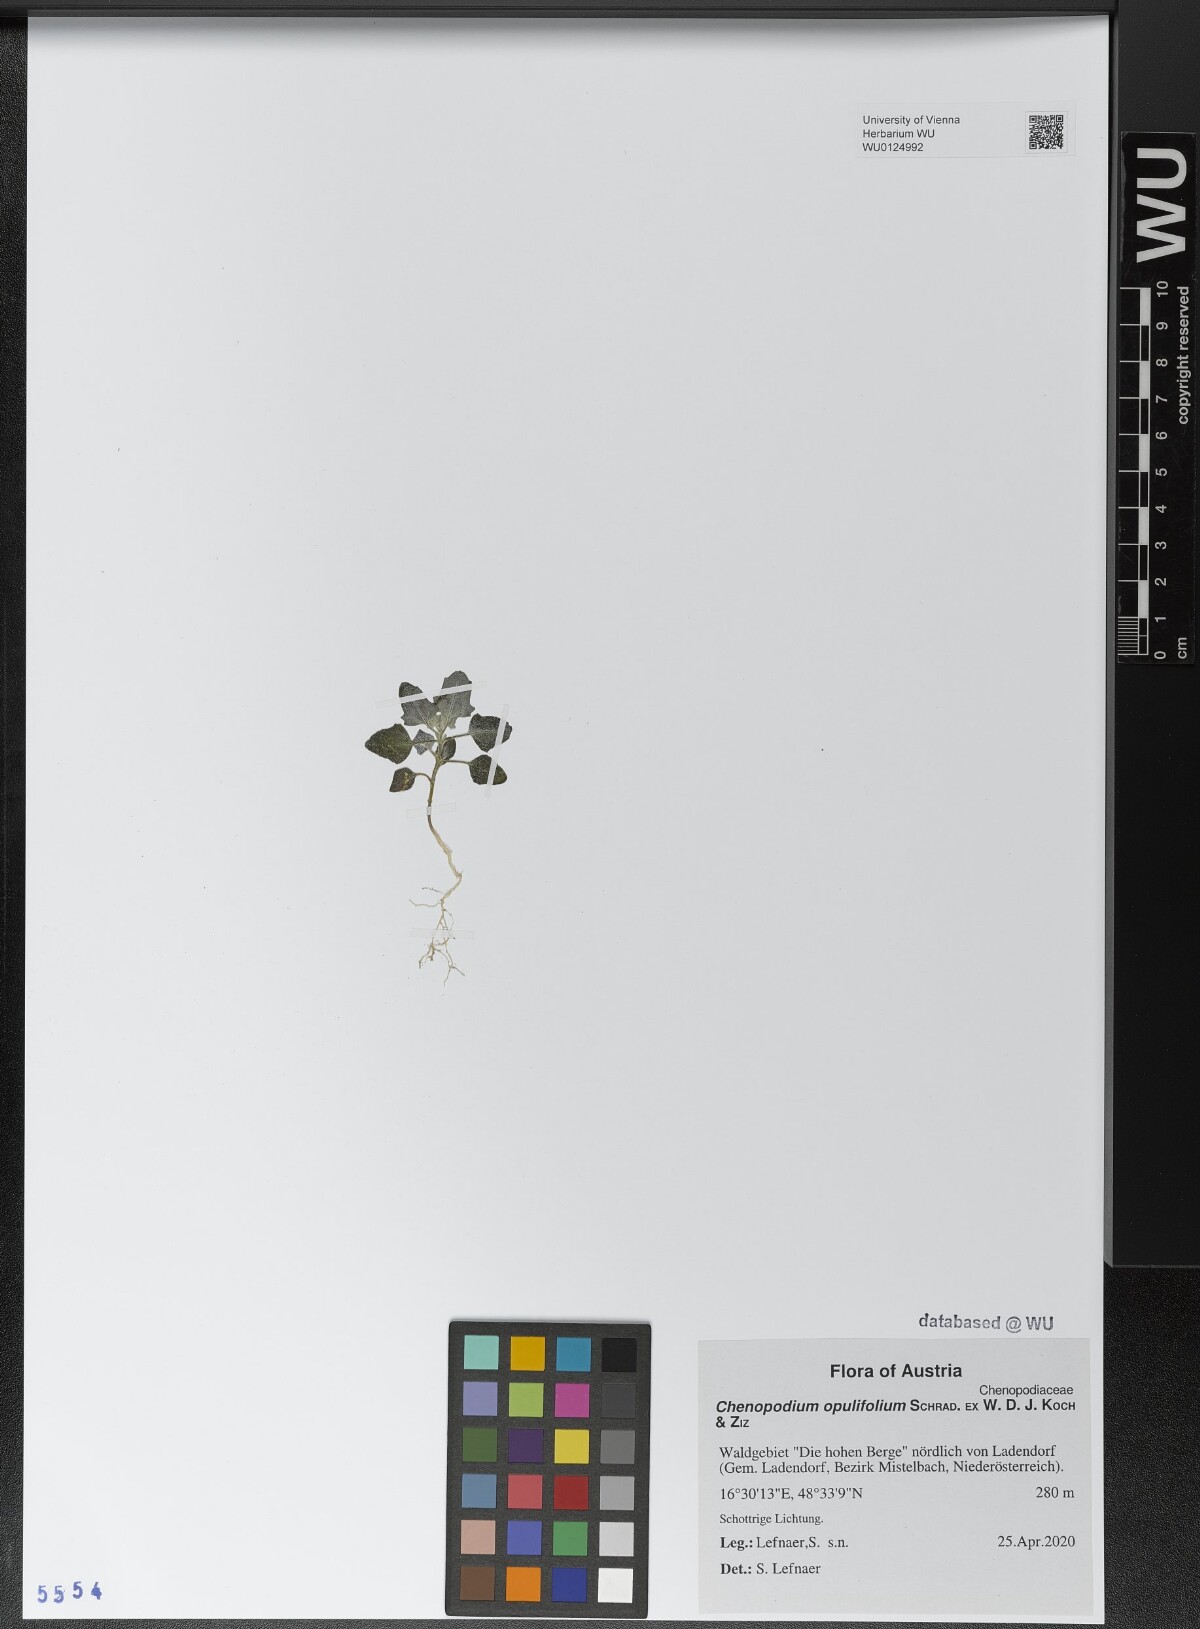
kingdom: Plantae
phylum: Tracheophyta
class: Magnoliopsida
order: Caryophyllales
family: Amaranthaceae
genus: Chenopodium
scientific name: Chenopodium opulifolium
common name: Grey goosefoot
